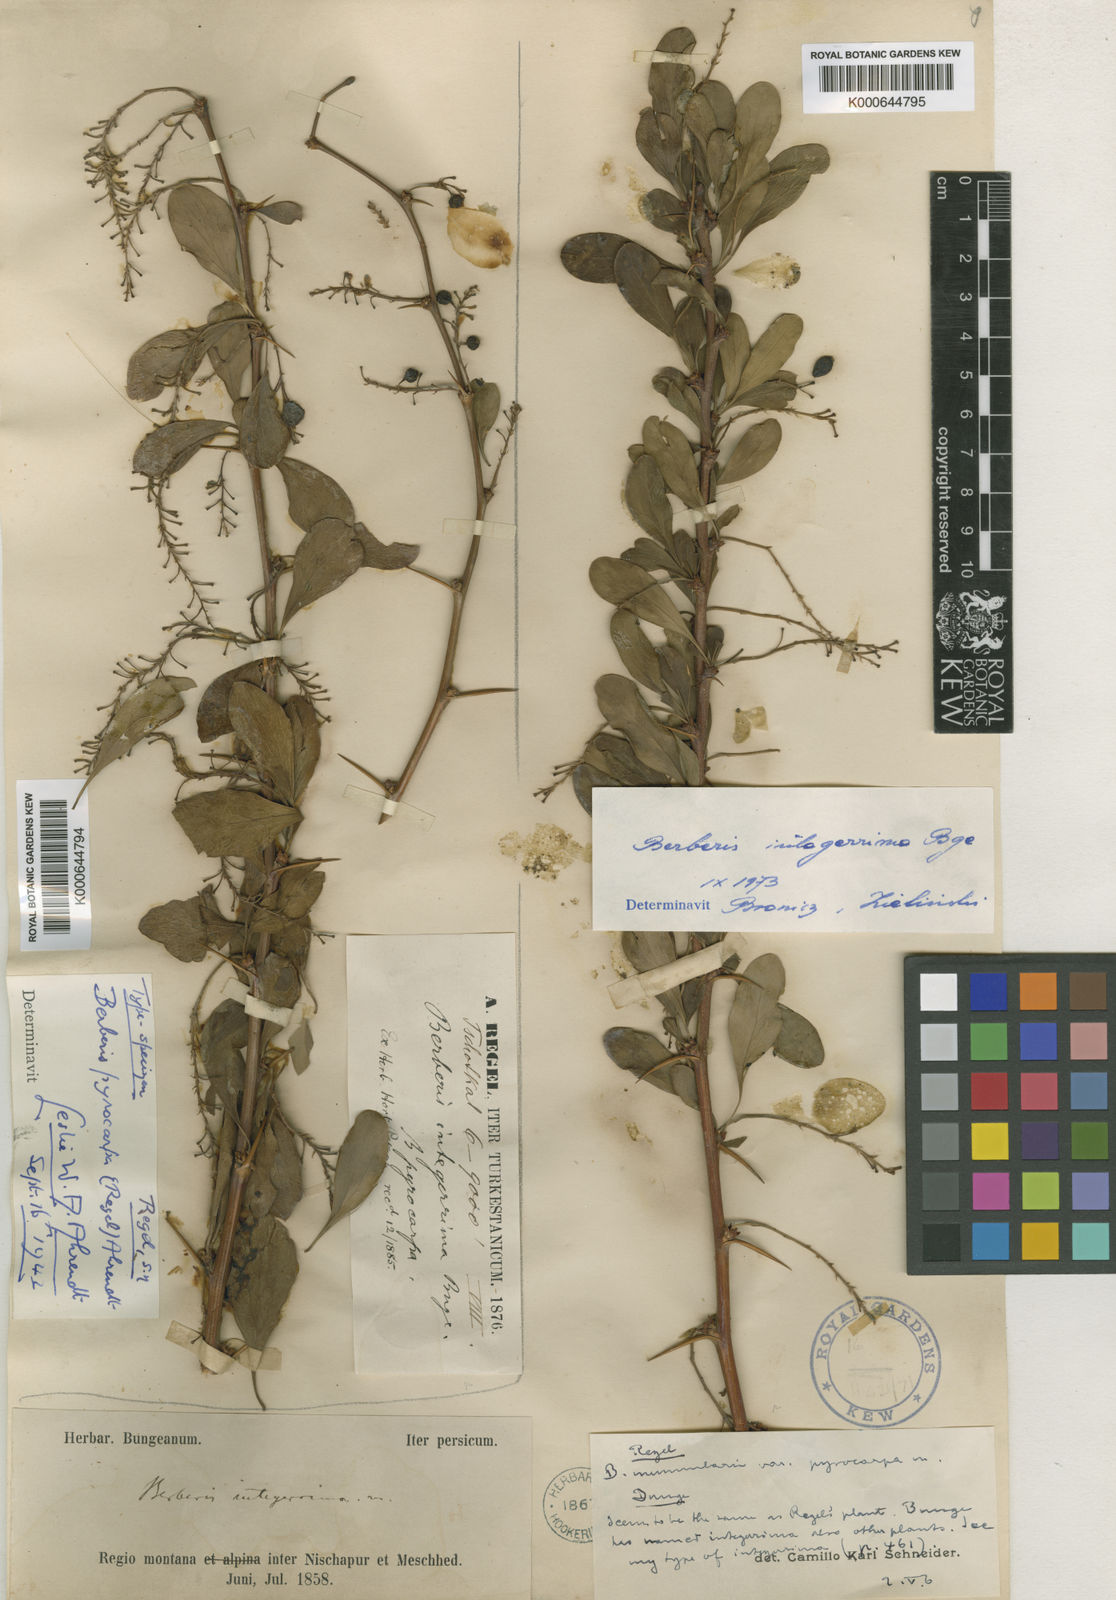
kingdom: Plantae
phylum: Tracheophyta
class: Magnoliopsida
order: Ranunculales
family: Berberidaceae
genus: Berberis
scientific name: Berberis integerrima
